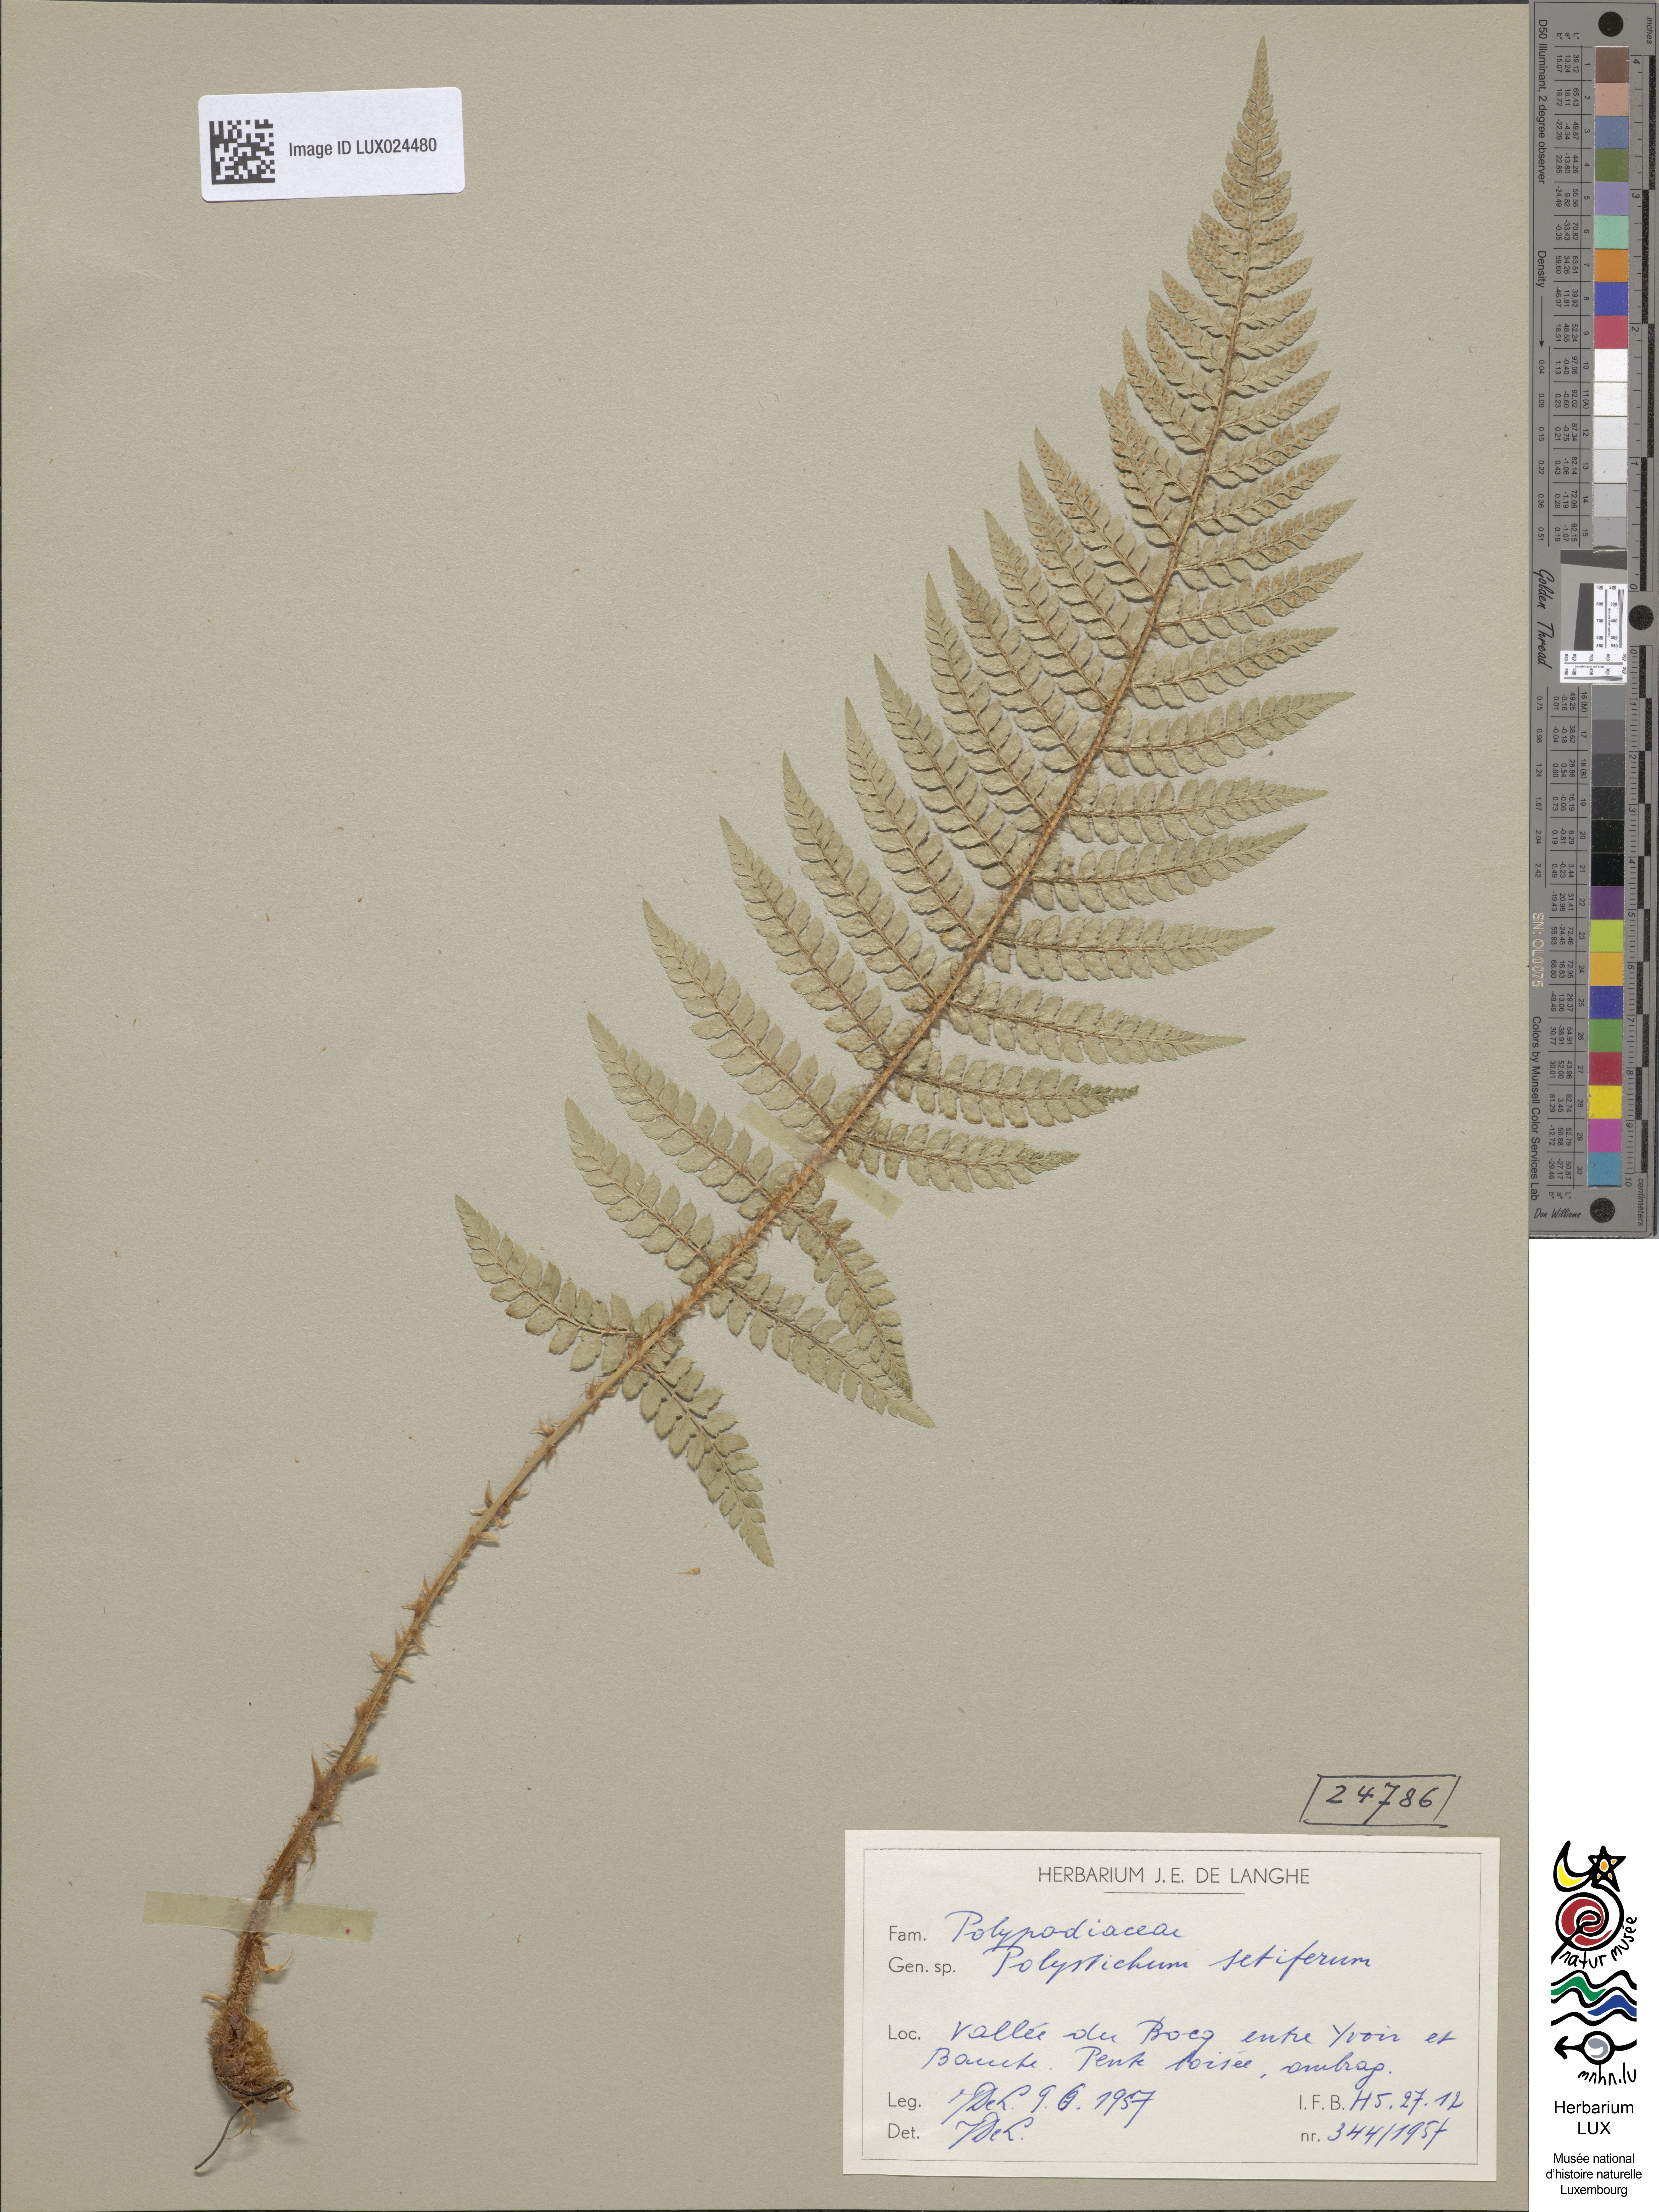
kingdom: Plantae
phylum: Tracheophyta
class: Polypodiopsida
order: Polypodiales
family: Dryopteridaceae
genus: Polystichum
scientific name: Polystichum setiferum
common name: Soft shield-fern
